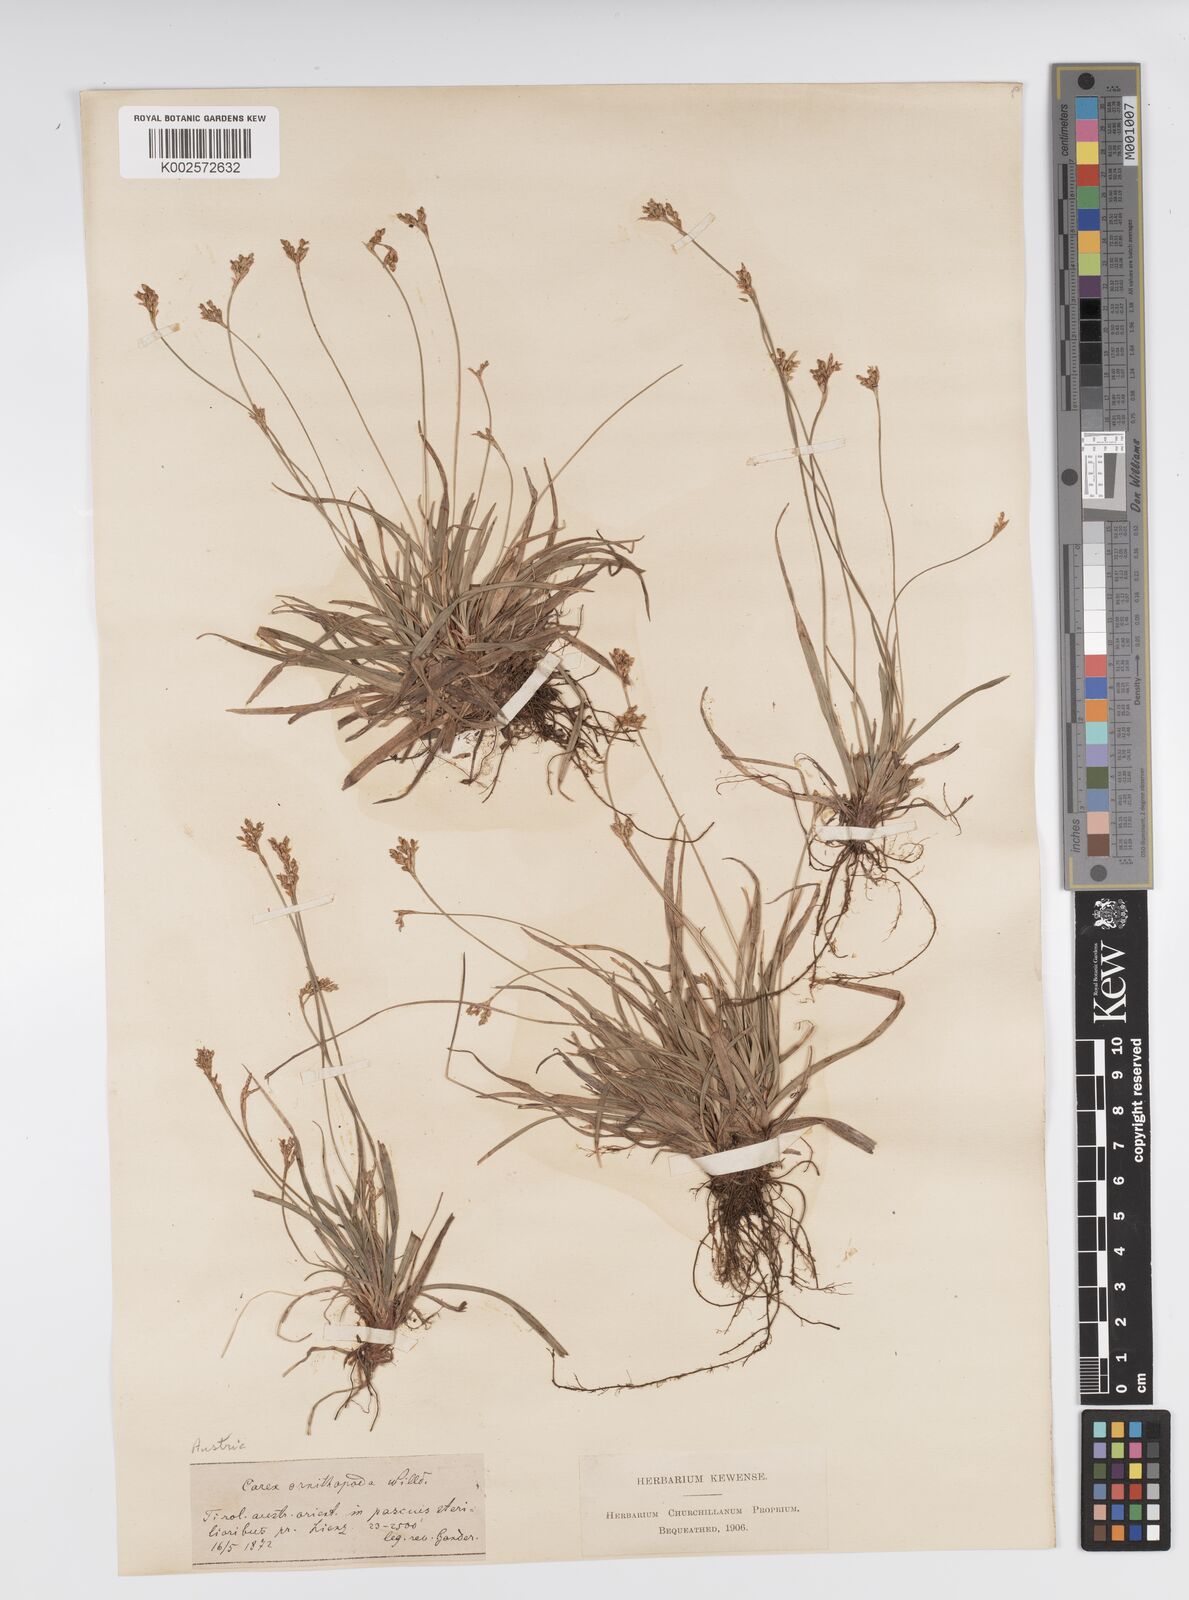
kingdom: Plantae
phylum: Tracheophyta
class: Liliopsida
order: Poales
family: Cyperaceae
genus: Carex
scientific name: Carex ornithopoda
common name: Bird's-foot sedge
